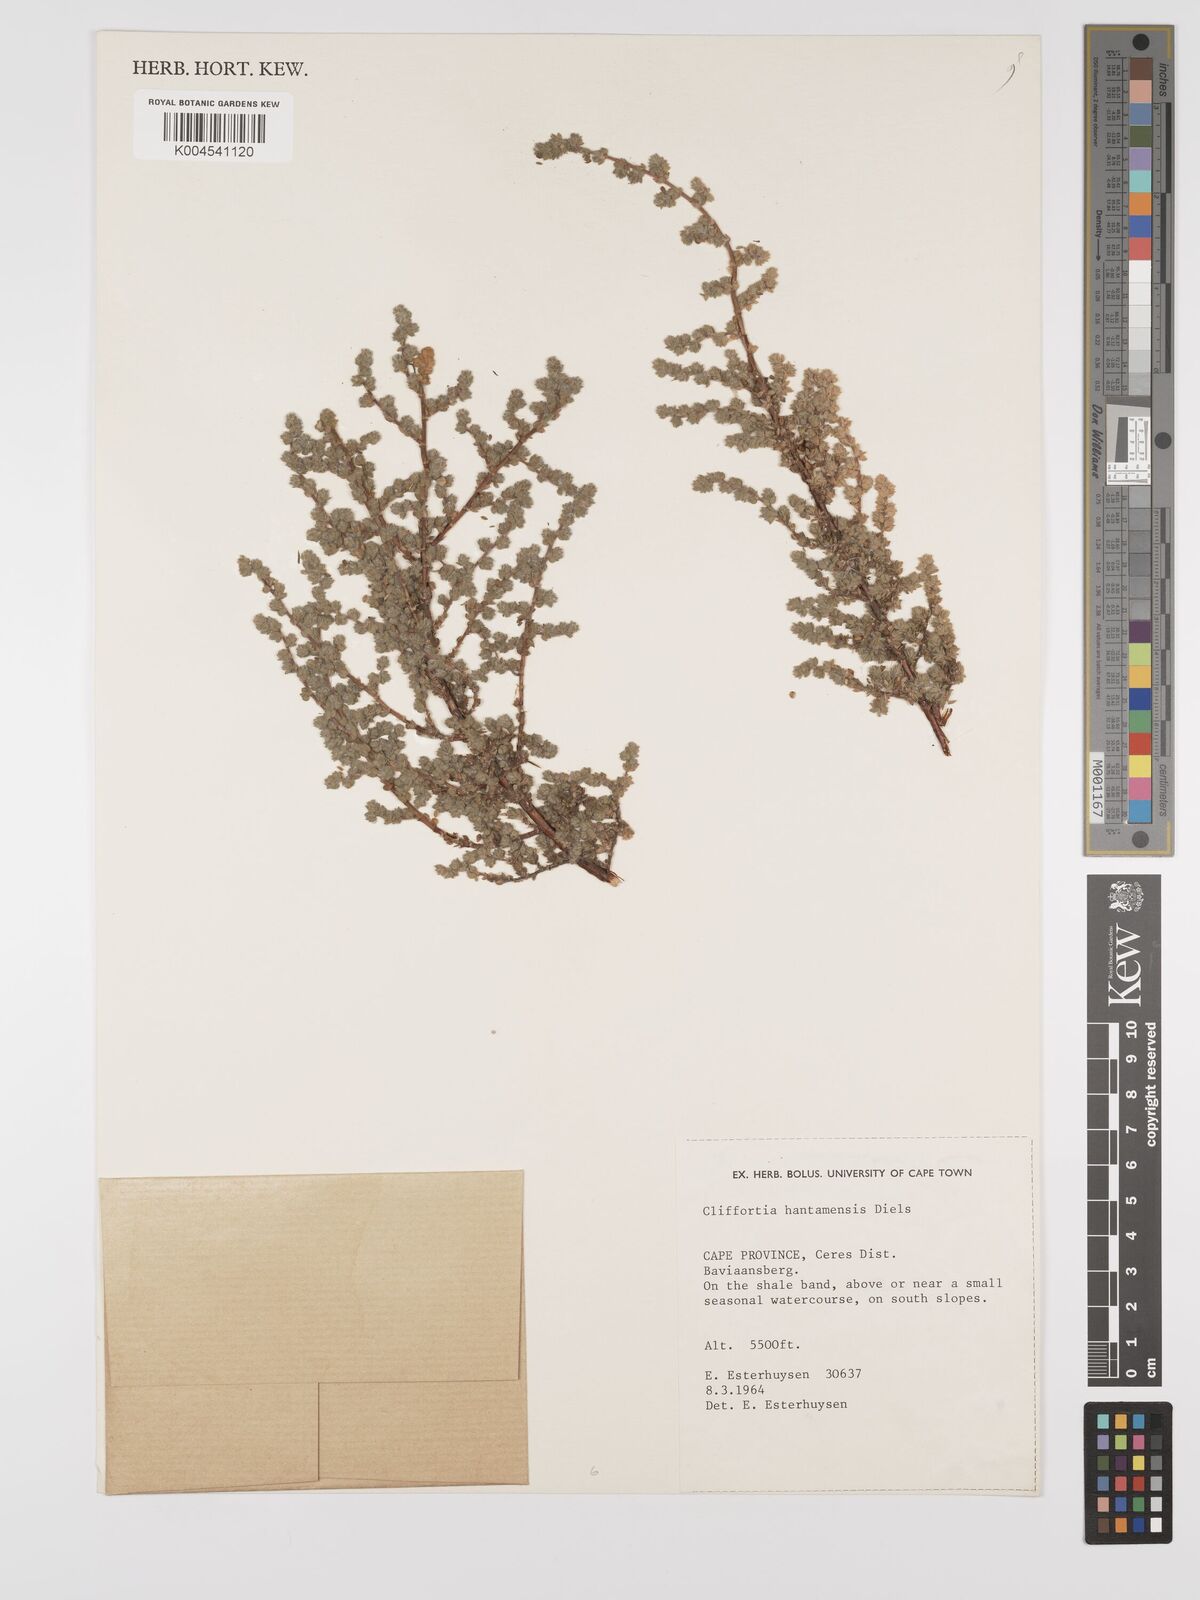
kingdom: Plantae
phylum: Tracheophyta
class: Magnoliopsida
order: Rosales
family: Rosaceae
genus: Cliffortia
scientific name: Cliffortia hantamensis
